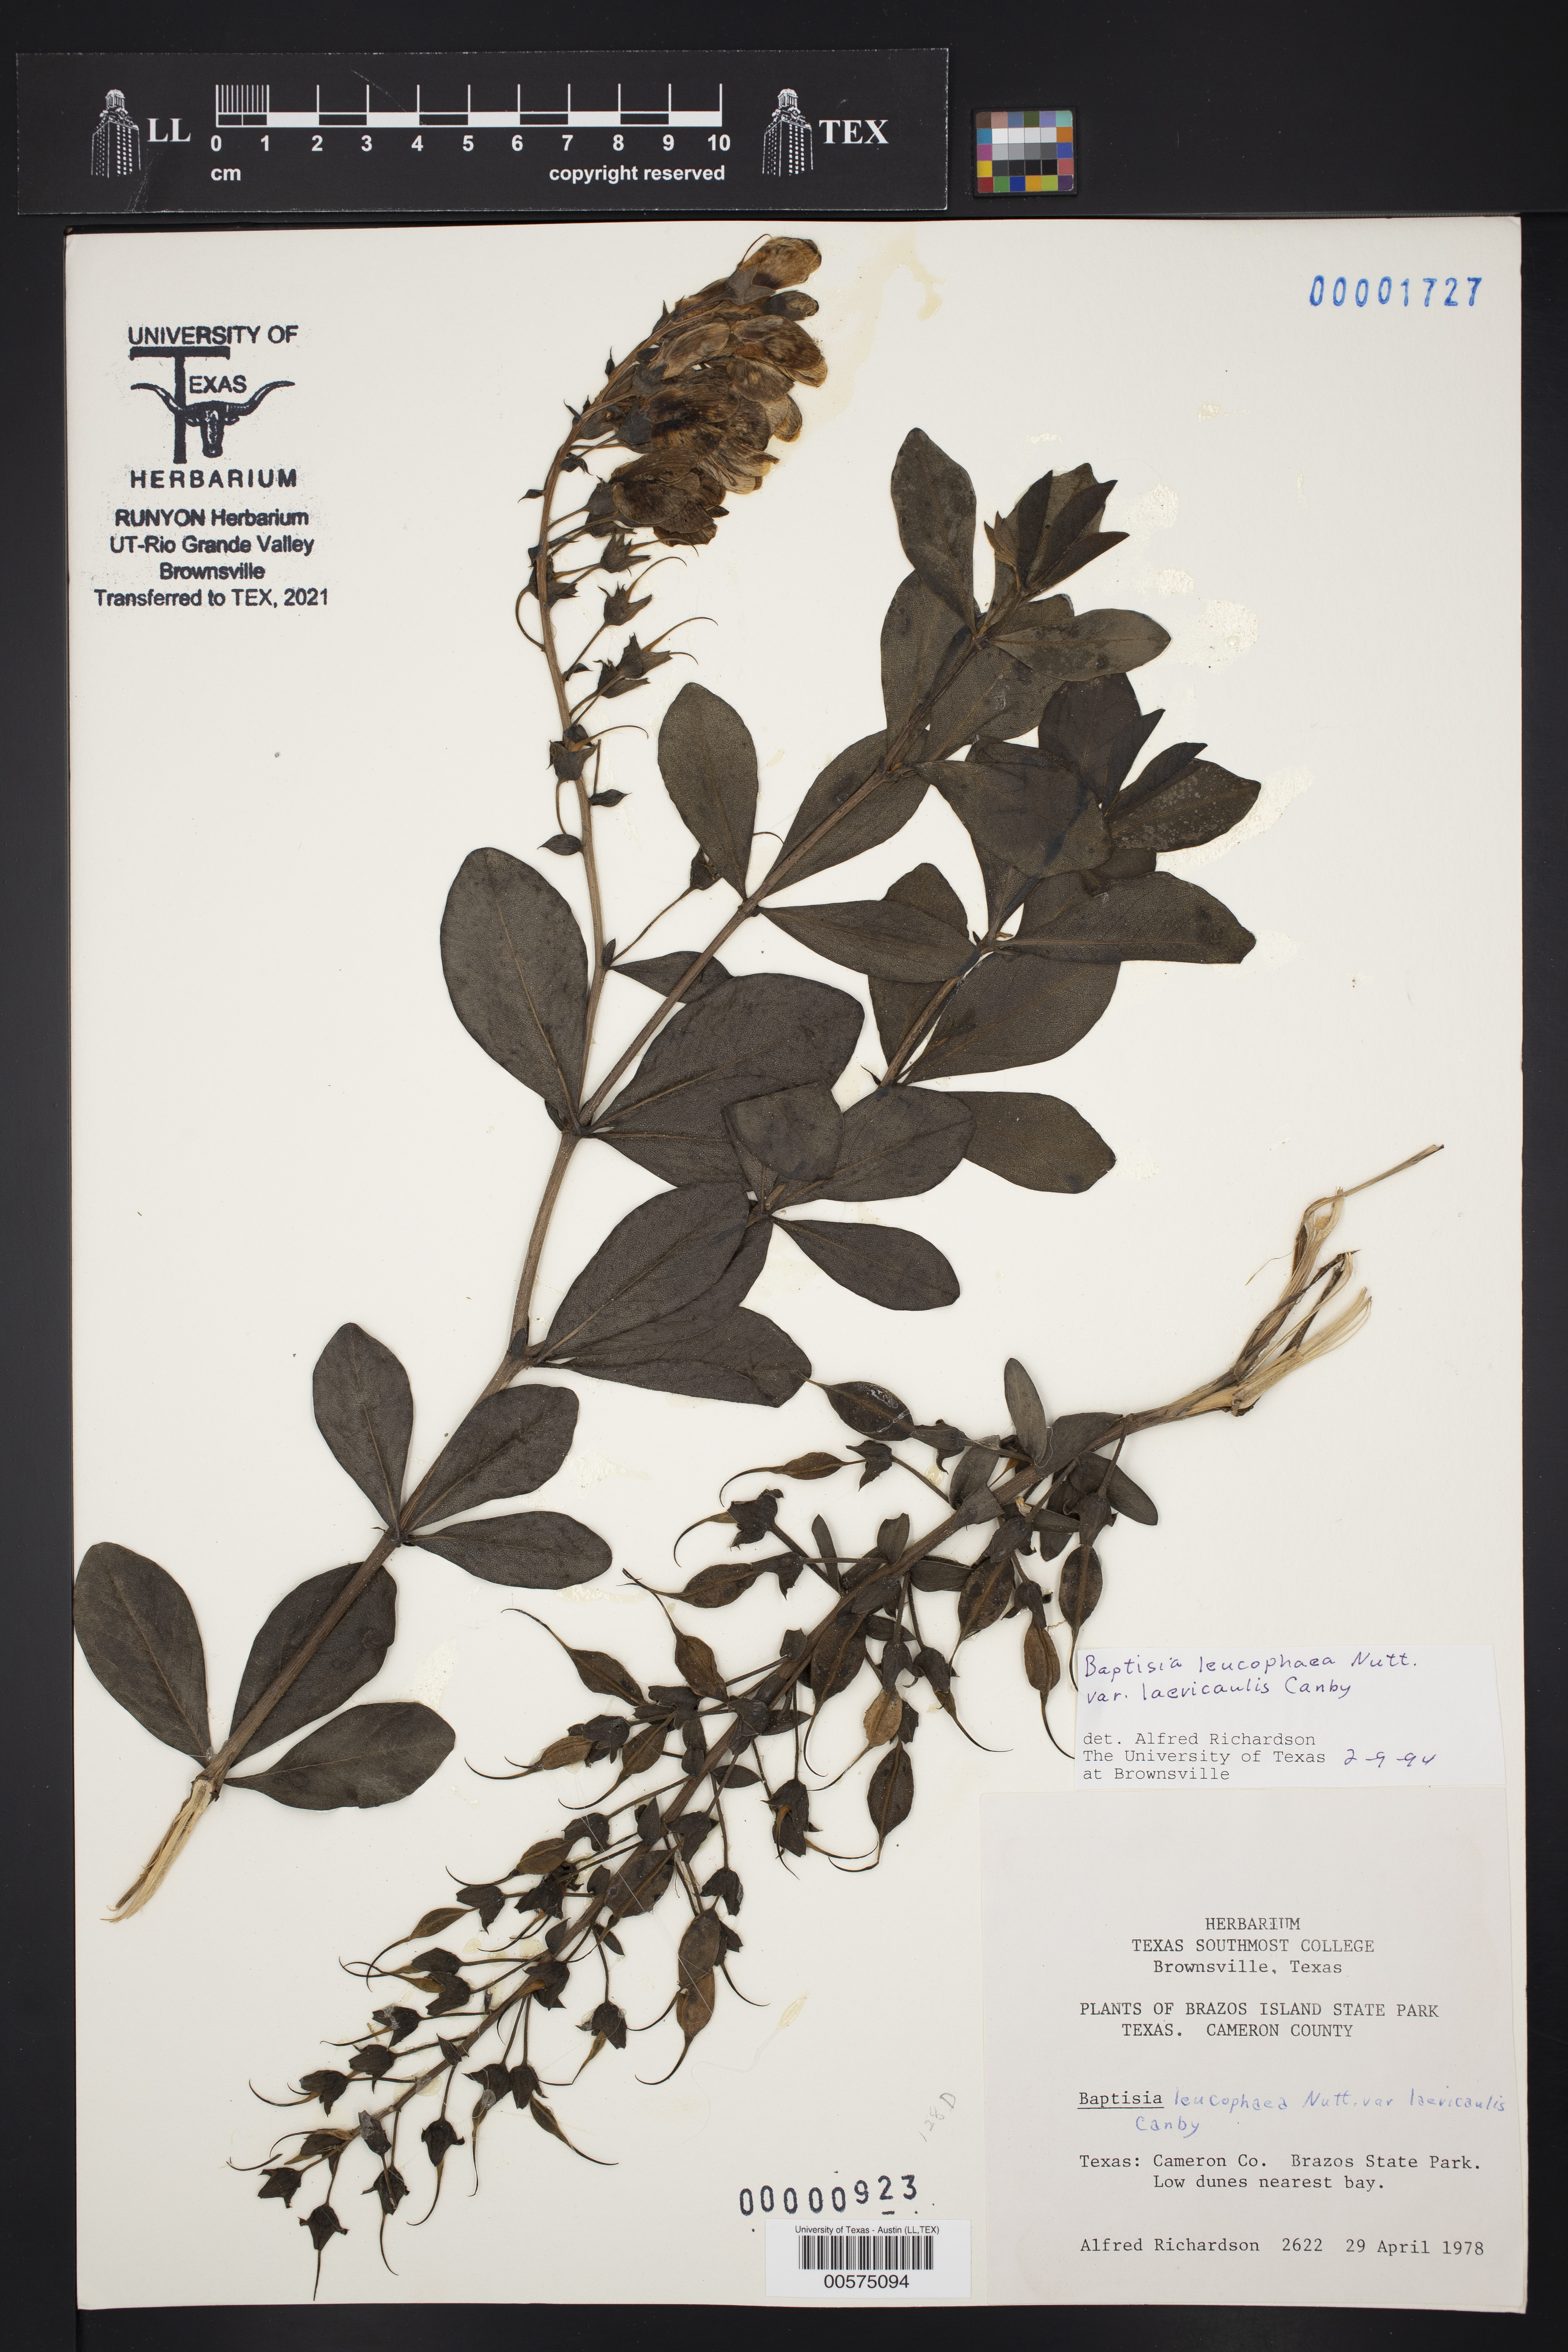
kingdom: Plantae
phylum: Tracheophyta
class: Magnoliopsida
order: Fabales
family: Fabaceae
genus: Baptisia
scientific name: Baptisia bracteata
